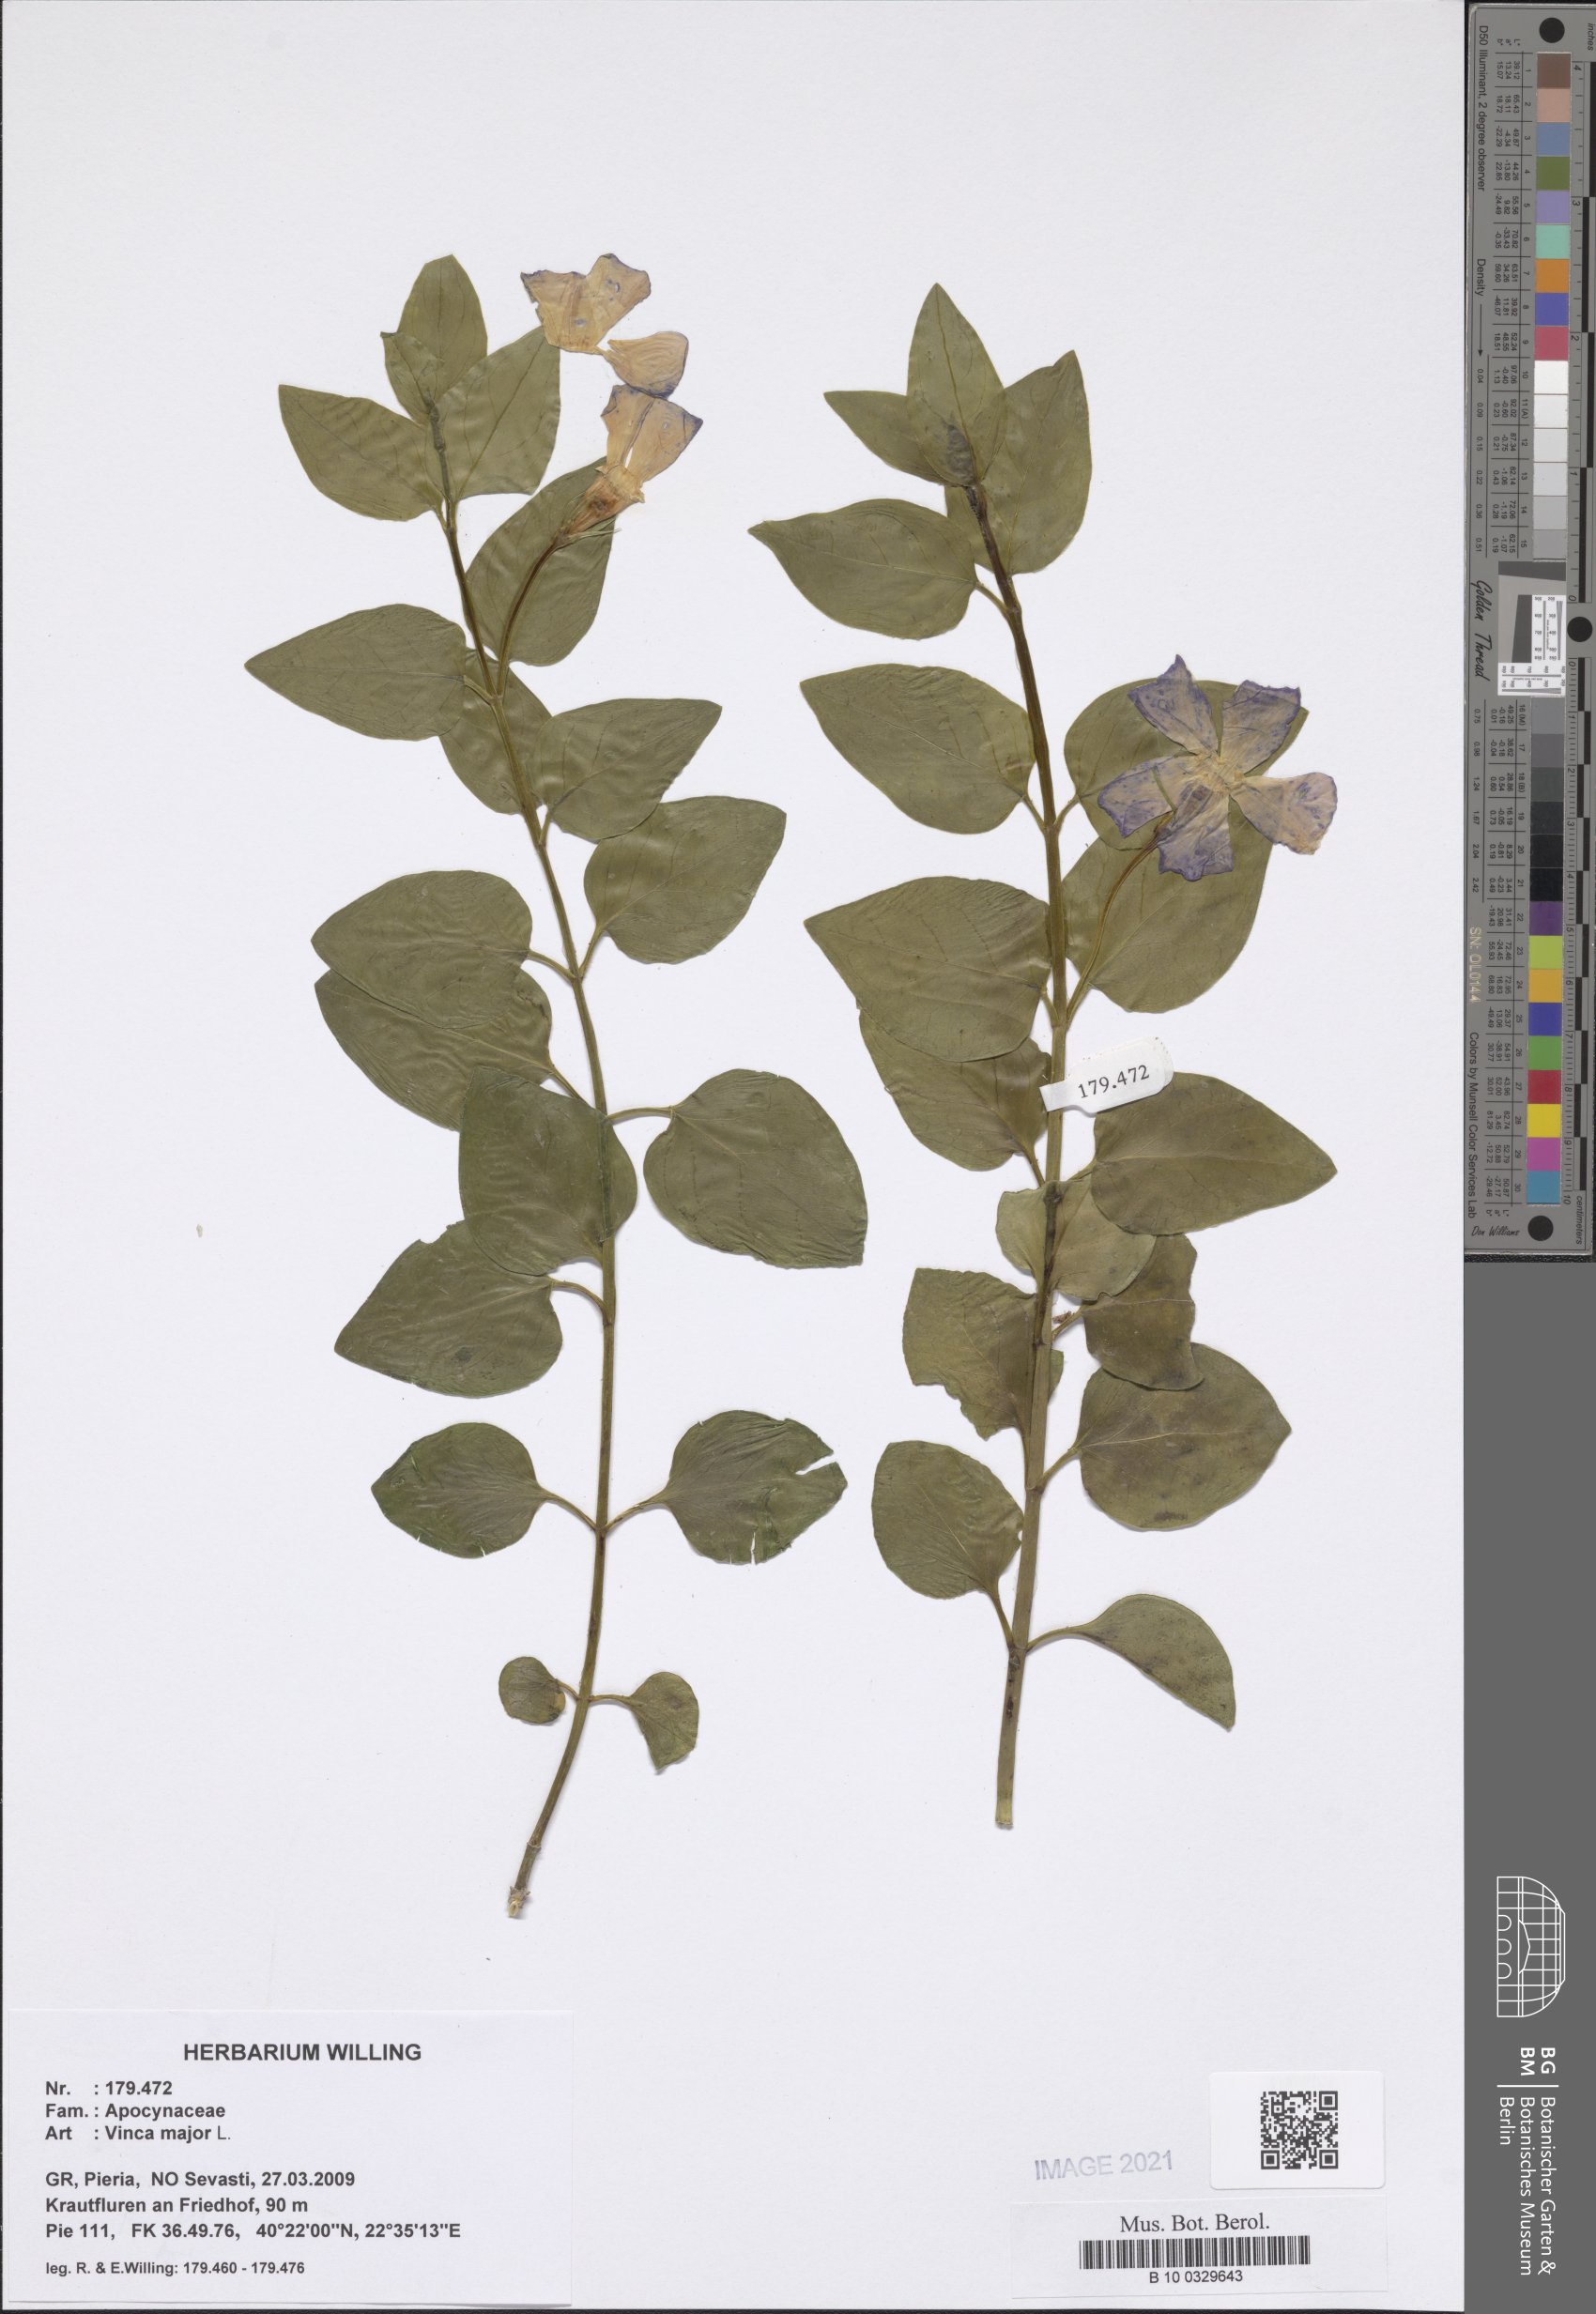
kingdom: Plantae
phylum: Tracheophyta
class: Magnoliopsida
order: Gentianales
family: Apocynaceae
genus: Vinca
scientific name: Vinca major
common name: Greater periwinkle
